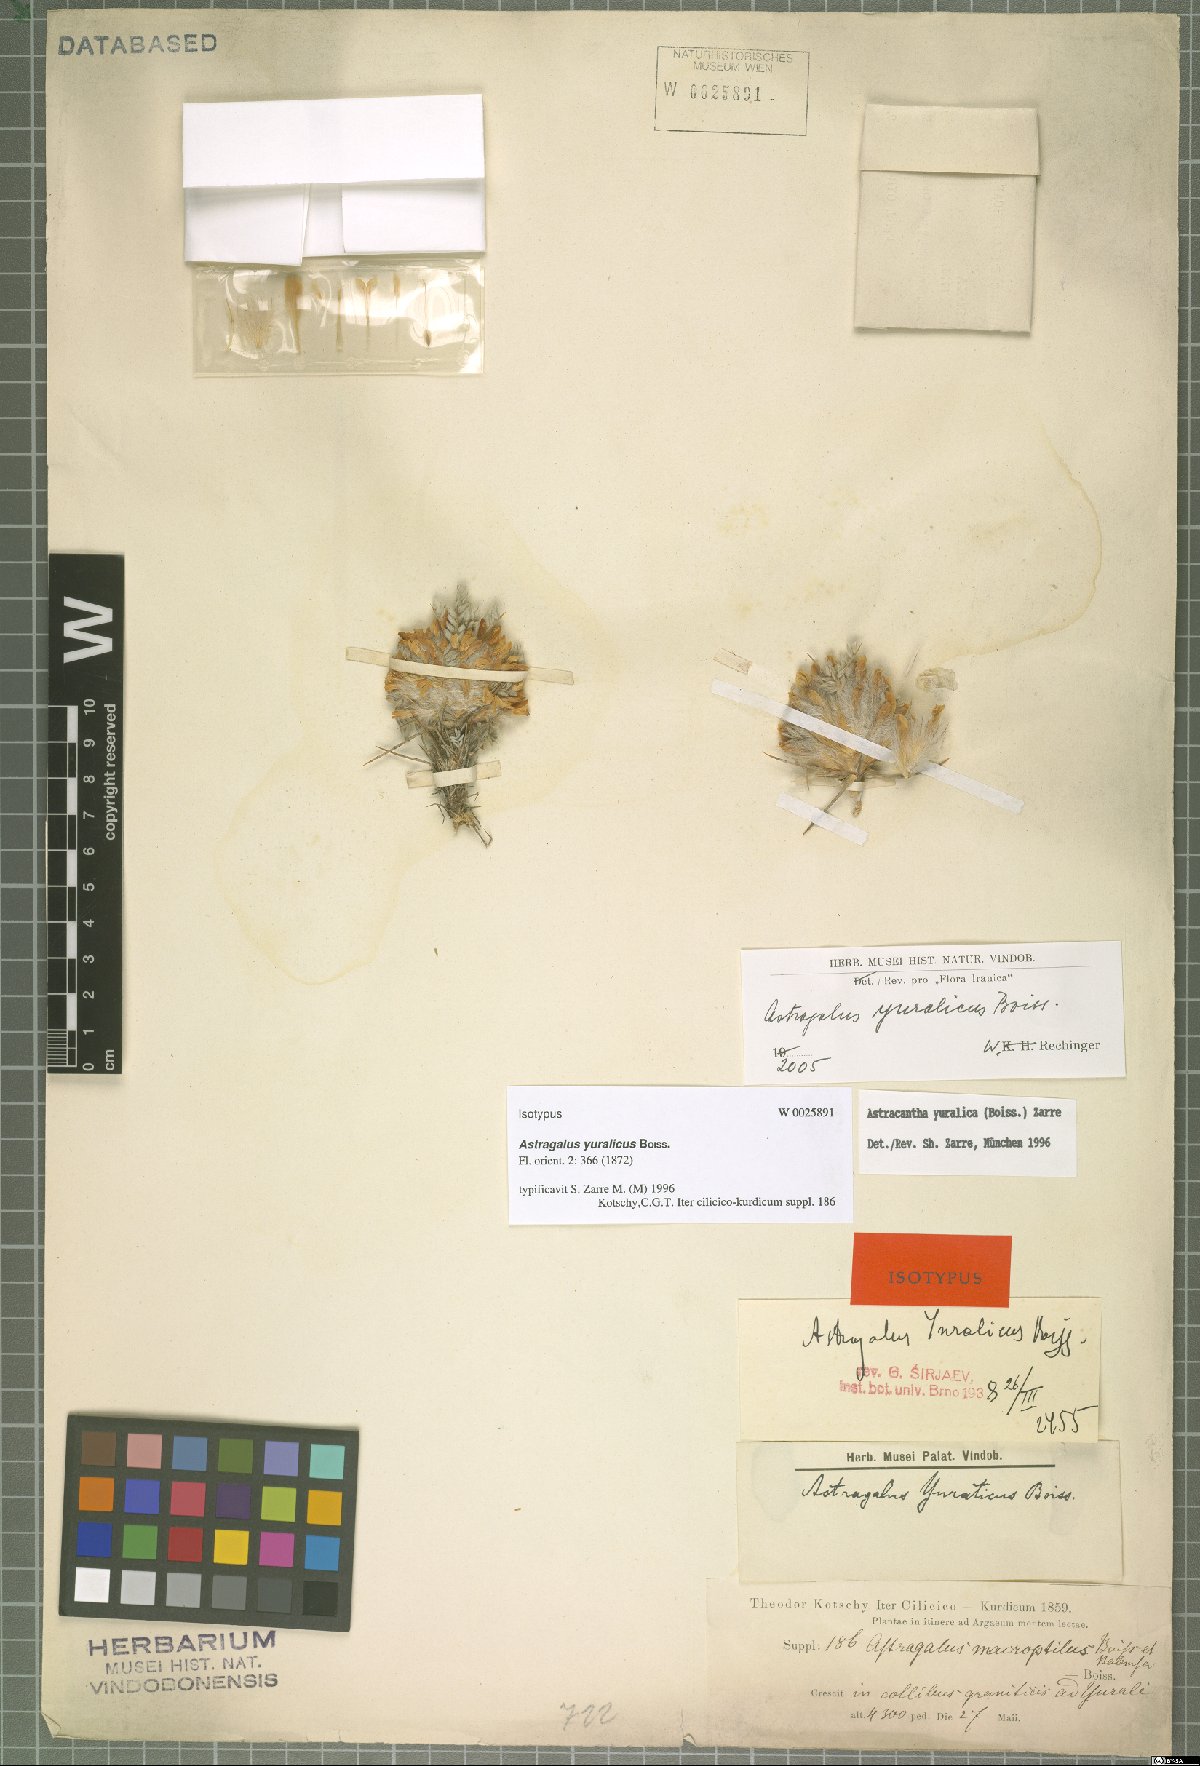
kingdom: Plantae
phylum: Tracheophyta
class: Magnoliopsida
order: Fabales
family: Fabaceae
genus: Astragalus
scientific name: Astragalus yuralicus
